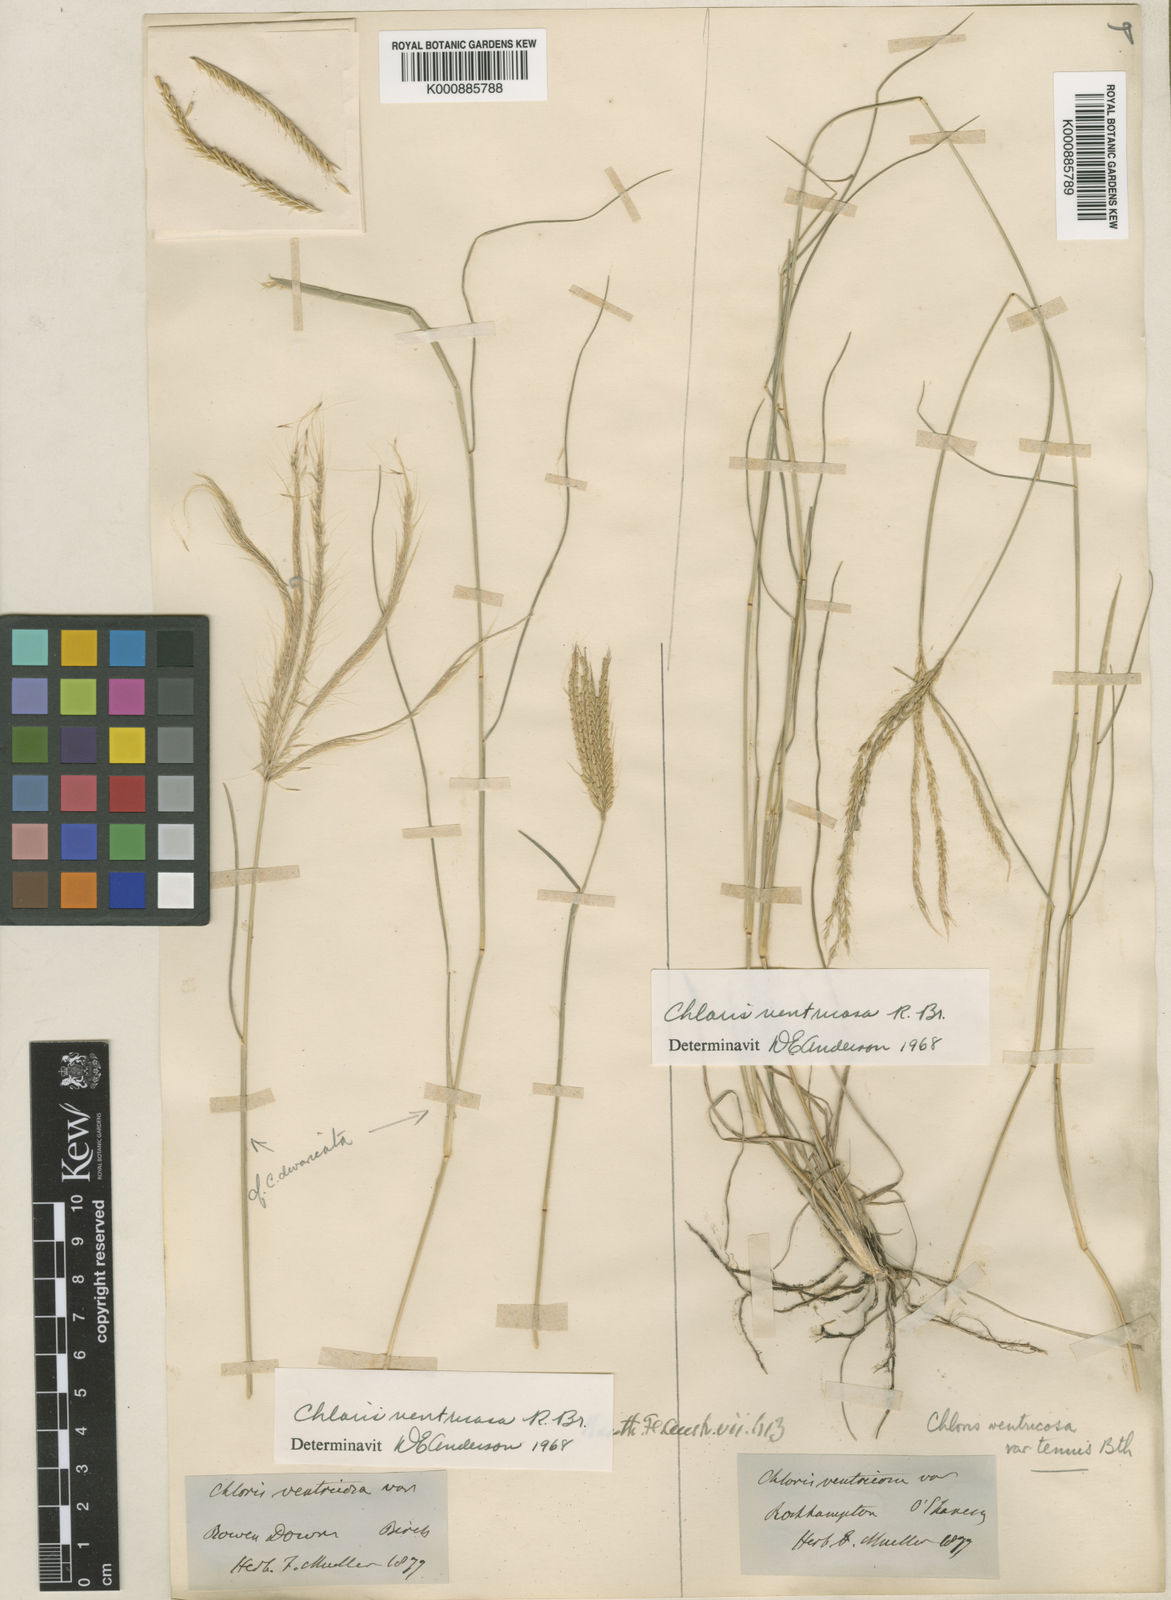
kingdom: Plantae
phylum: Tracheophyta
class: Liliopsida
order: Poales
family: Poaceae
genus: Chloris
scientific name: Chloris ventricosa
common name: Australian windmill grass
